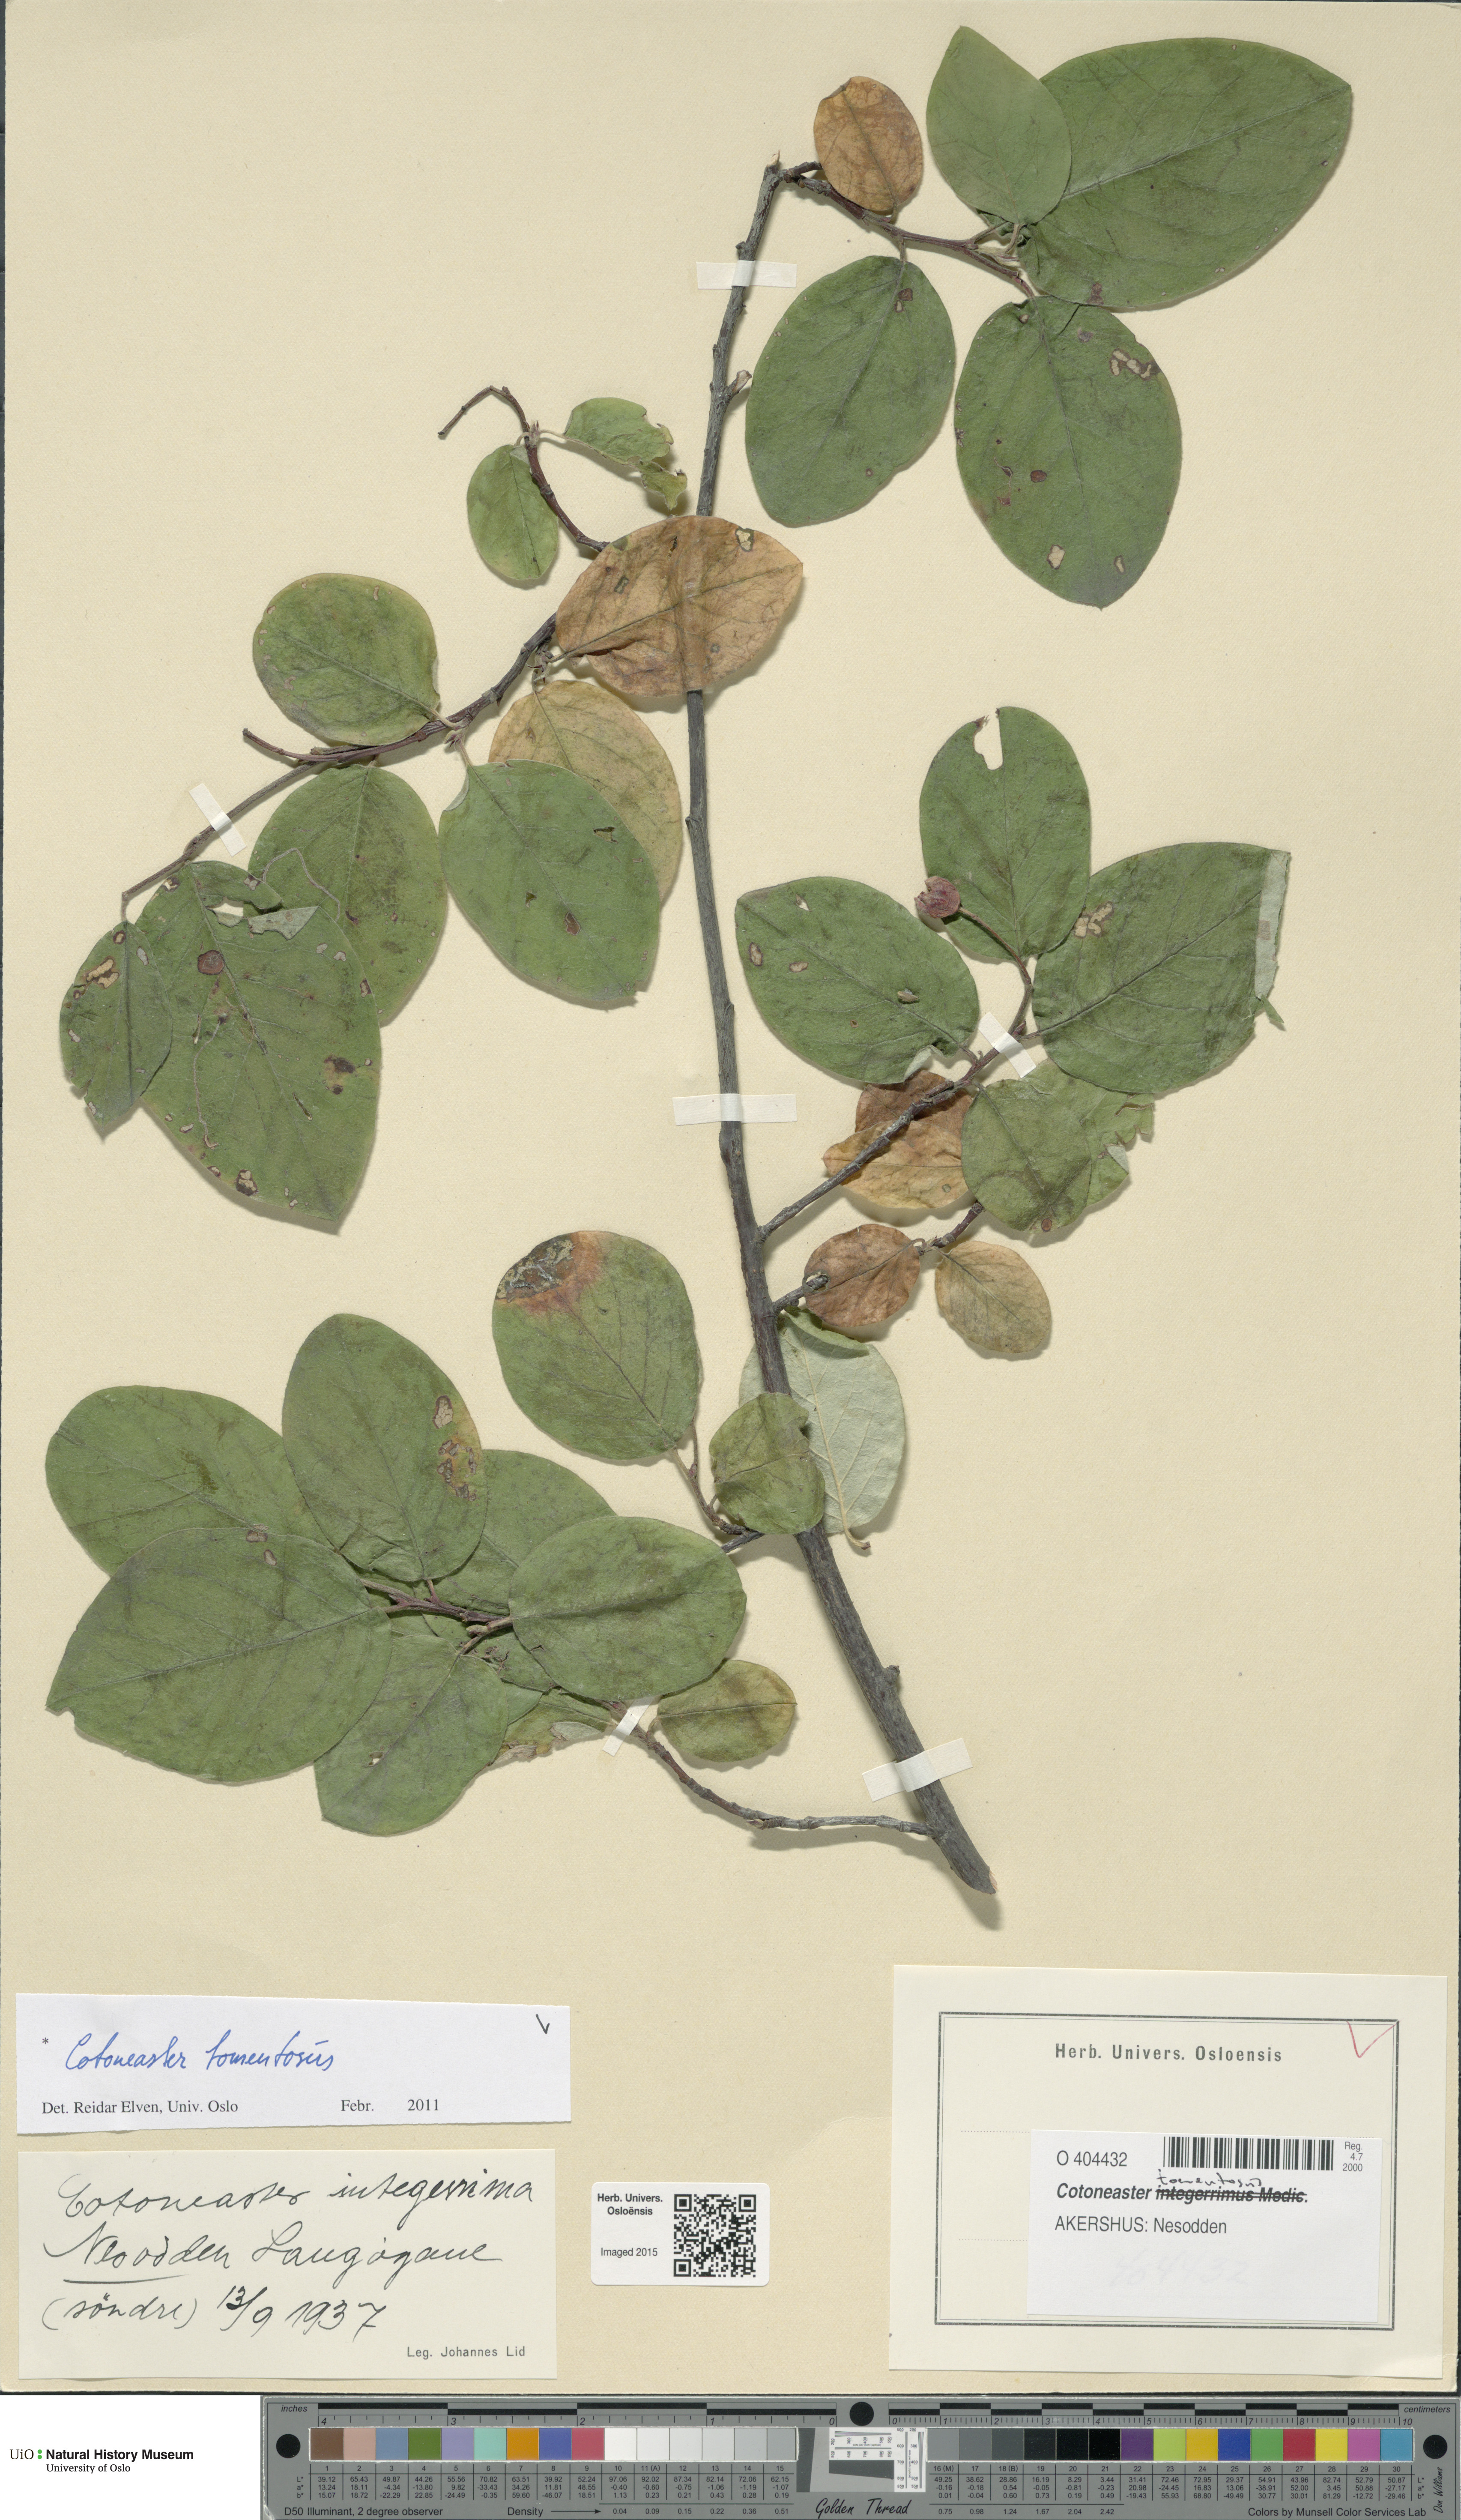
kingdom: Plantae
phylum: Tracheophyta
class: Magnoliopsida
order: Rosales
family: Rosaceae
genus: Cotoneaster
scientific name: Cotoneaster tomentosus
